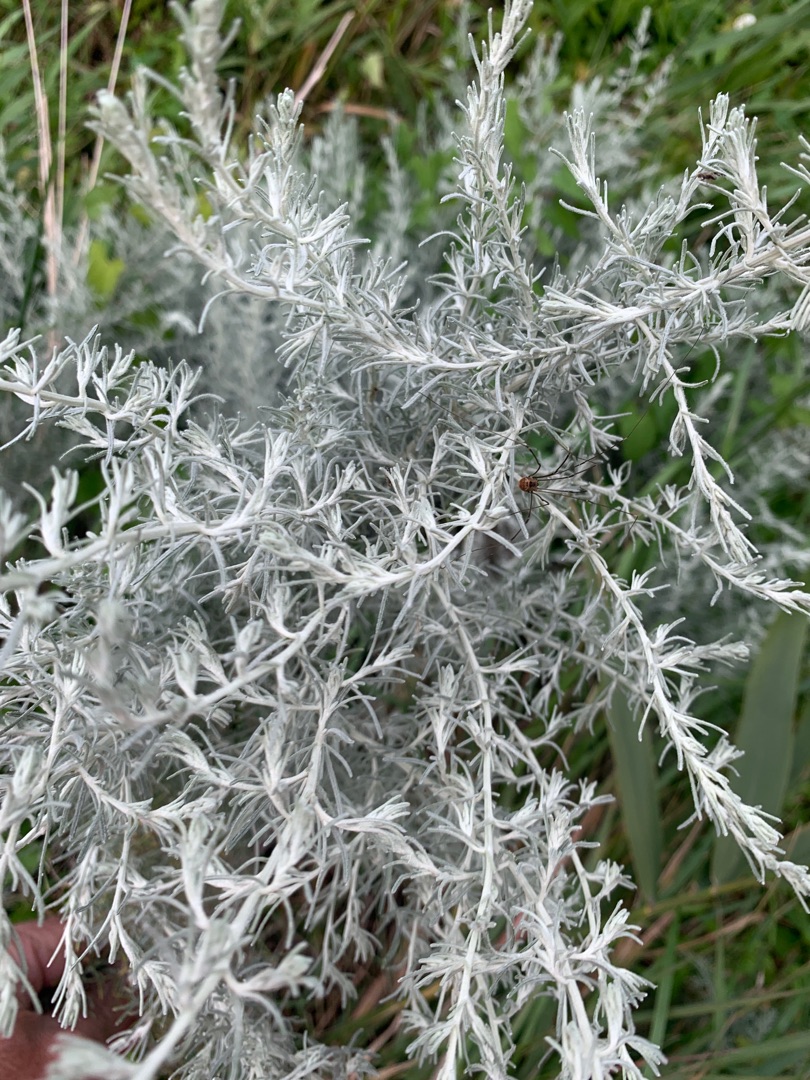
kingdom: Plantae
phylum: Tracheophyta
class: Magnoliopsida
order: Asterales
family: Asteraceae
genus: Artemisia
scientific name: Artemisia maritima
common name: Strandmalurt
